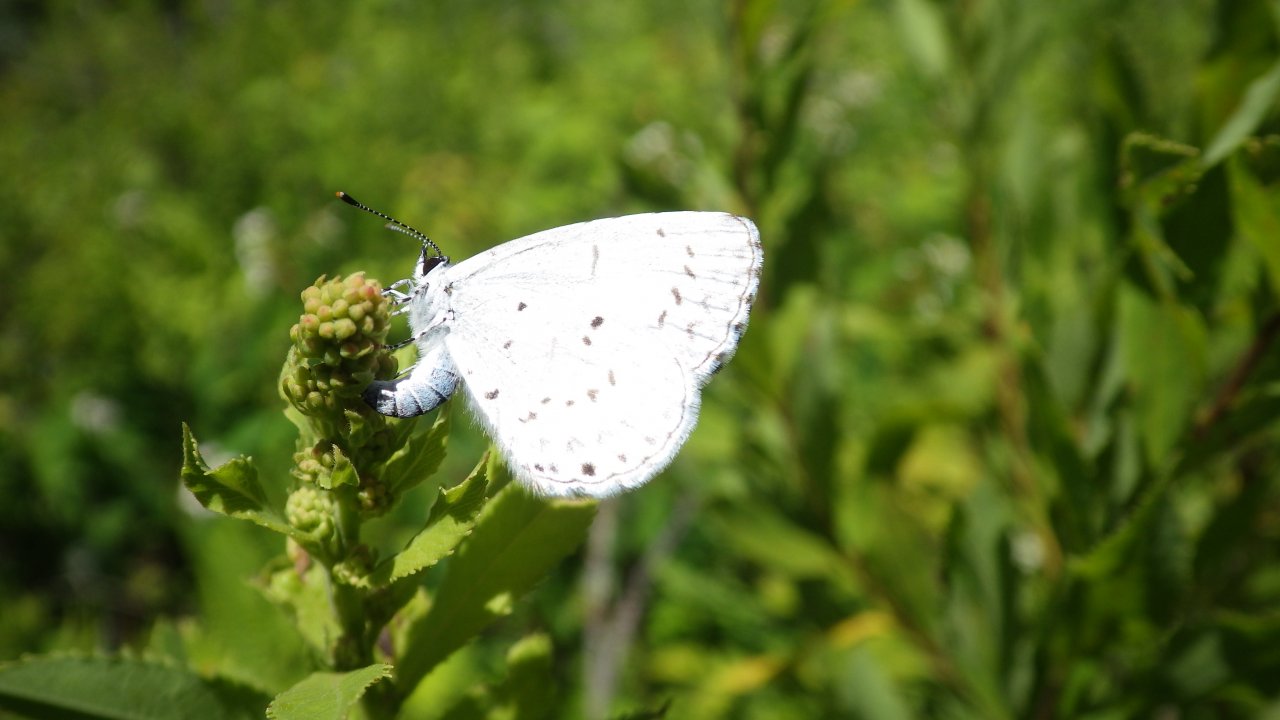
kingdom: Animalia
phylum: Arthropoda
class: Insecta
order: Lepidoptera
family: Lycaenidae
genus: Celastrina
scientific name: Celastrina
